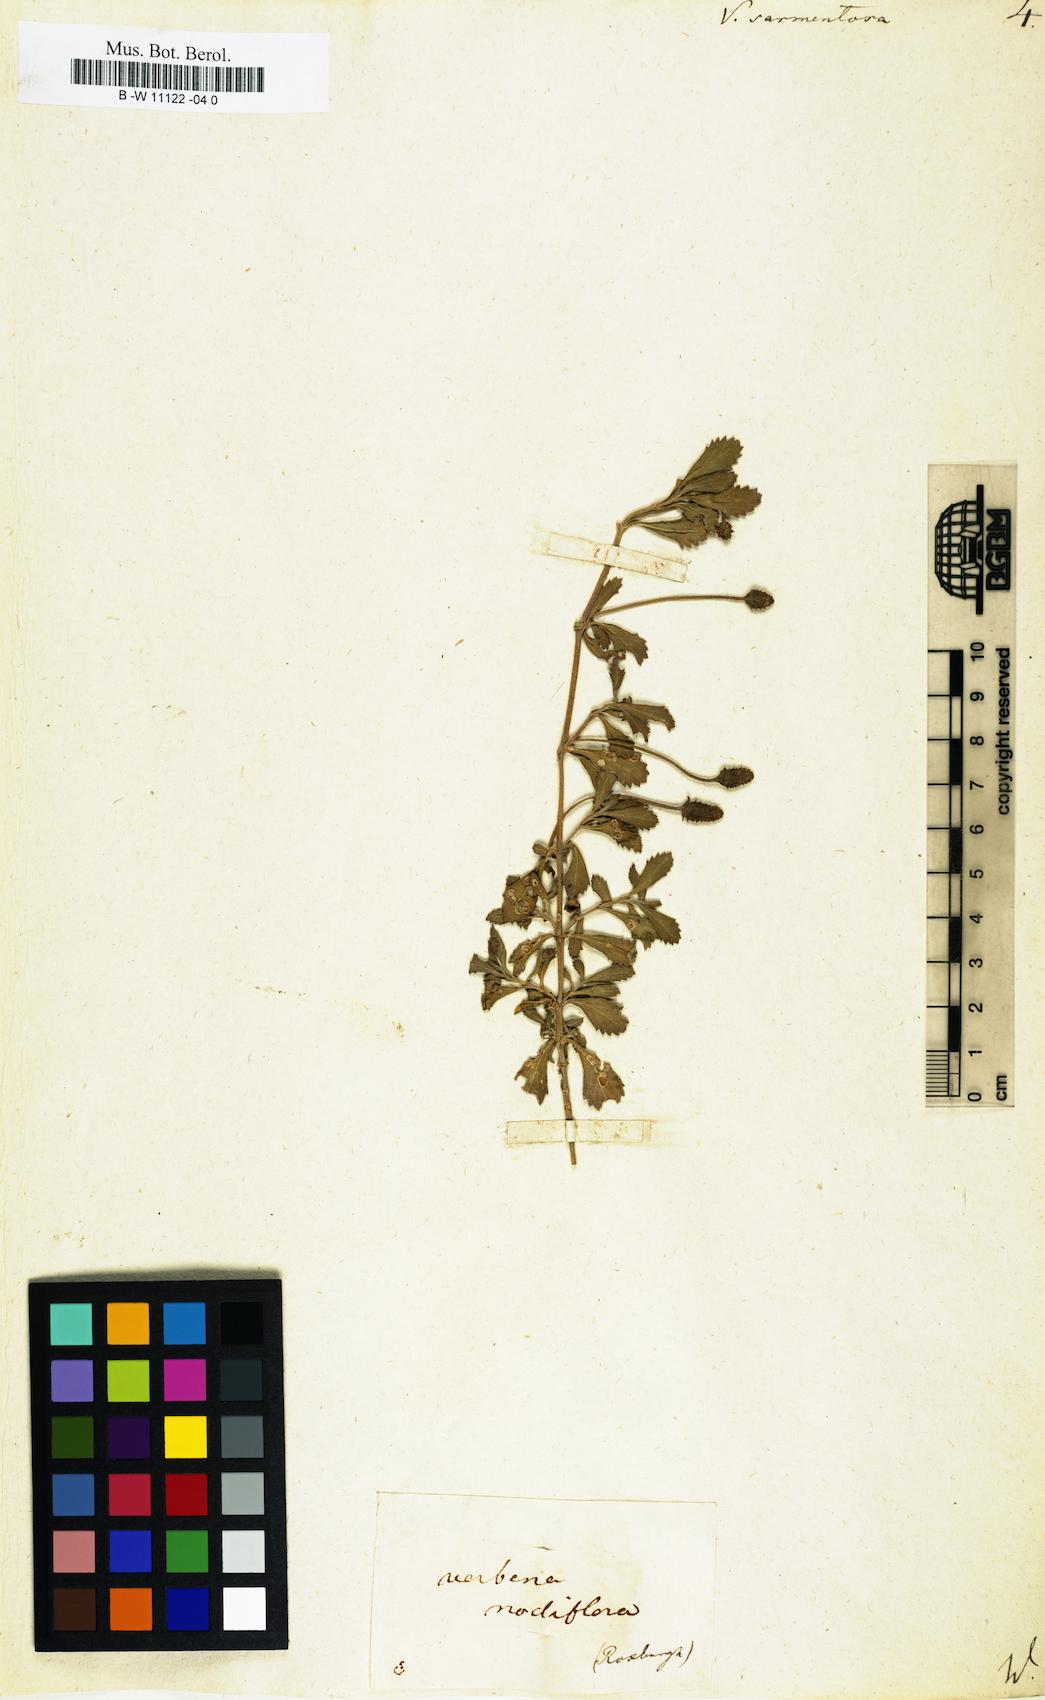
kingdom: Plantae
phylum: Tracheophyta
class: Magnoliopsida
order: Lamiales
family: Verbenaceae
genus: Phyla
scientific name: Phyla nodiflora
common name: Frogfruit
